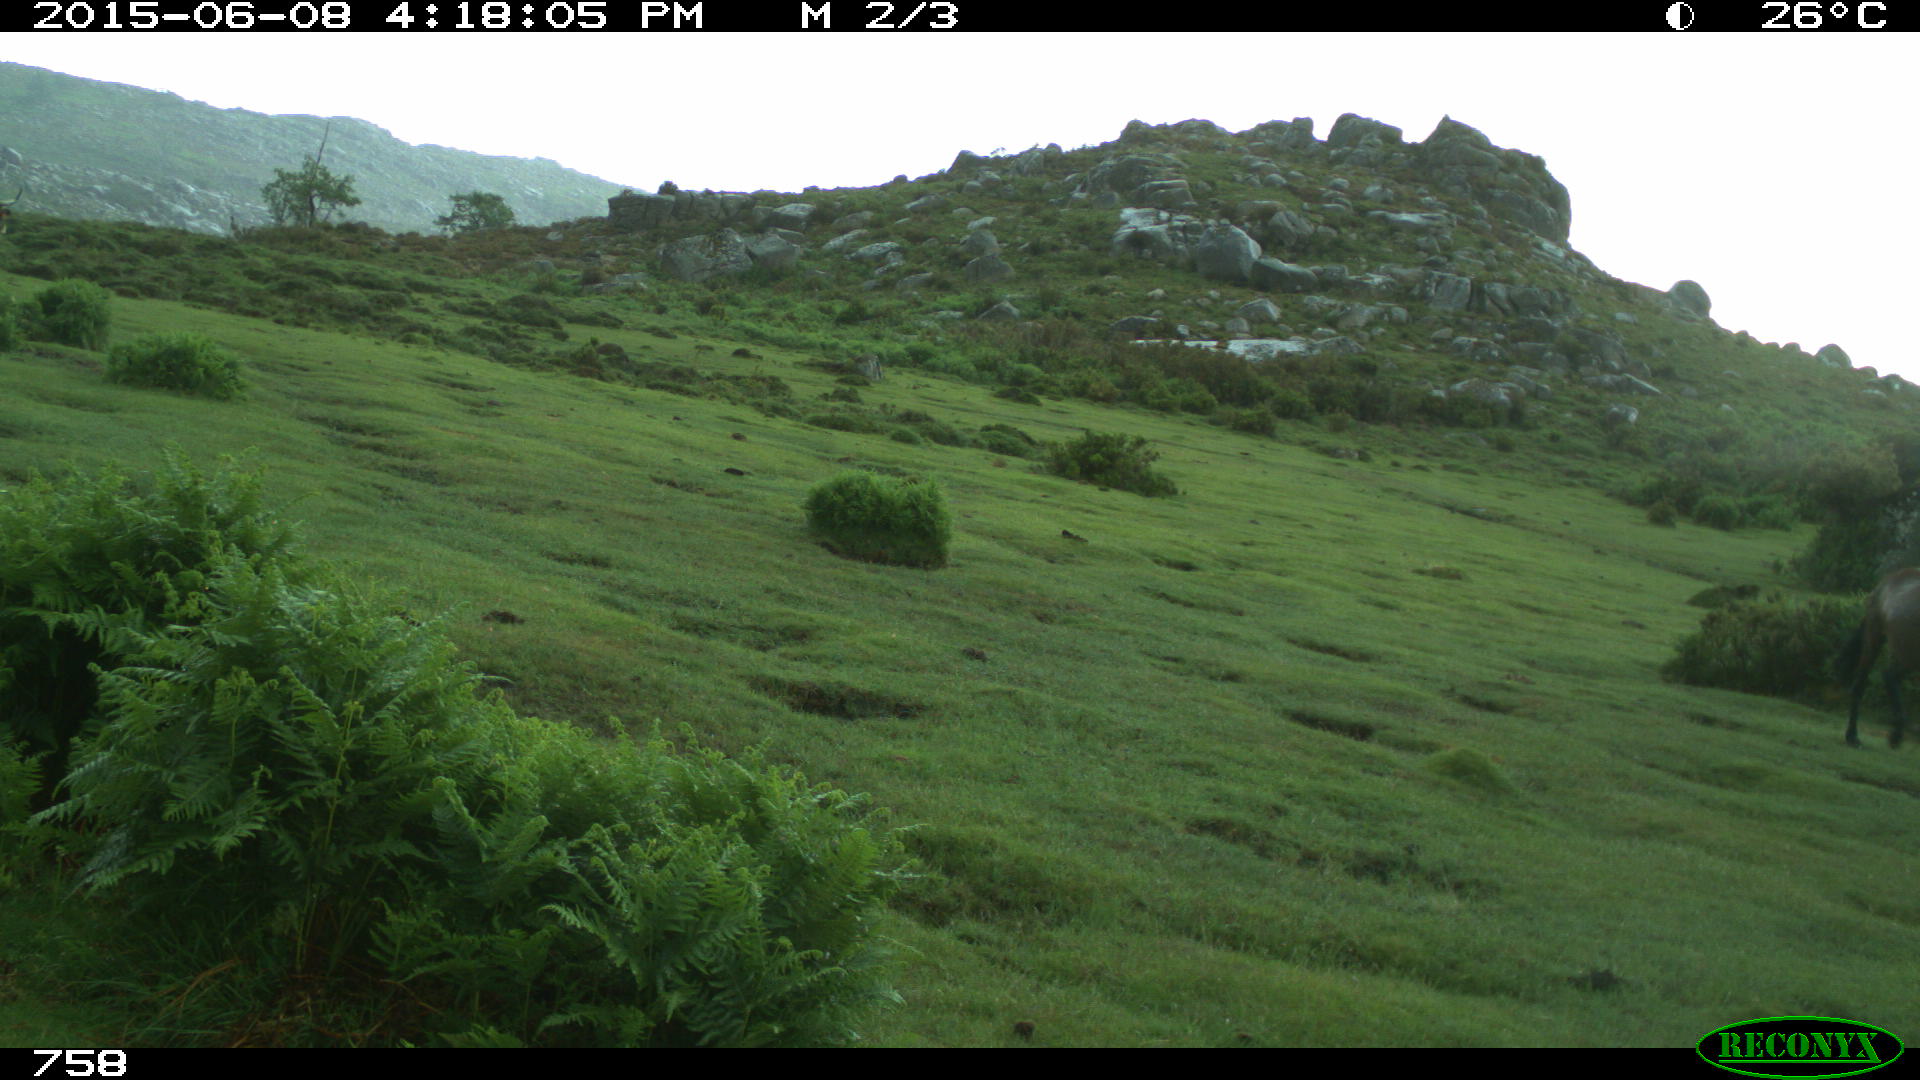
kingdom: Animalia
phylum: Chordata
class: Mammalia
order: Perissodactyla
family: Equidae
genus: Equus
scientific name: Equus caballus
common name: Horse
